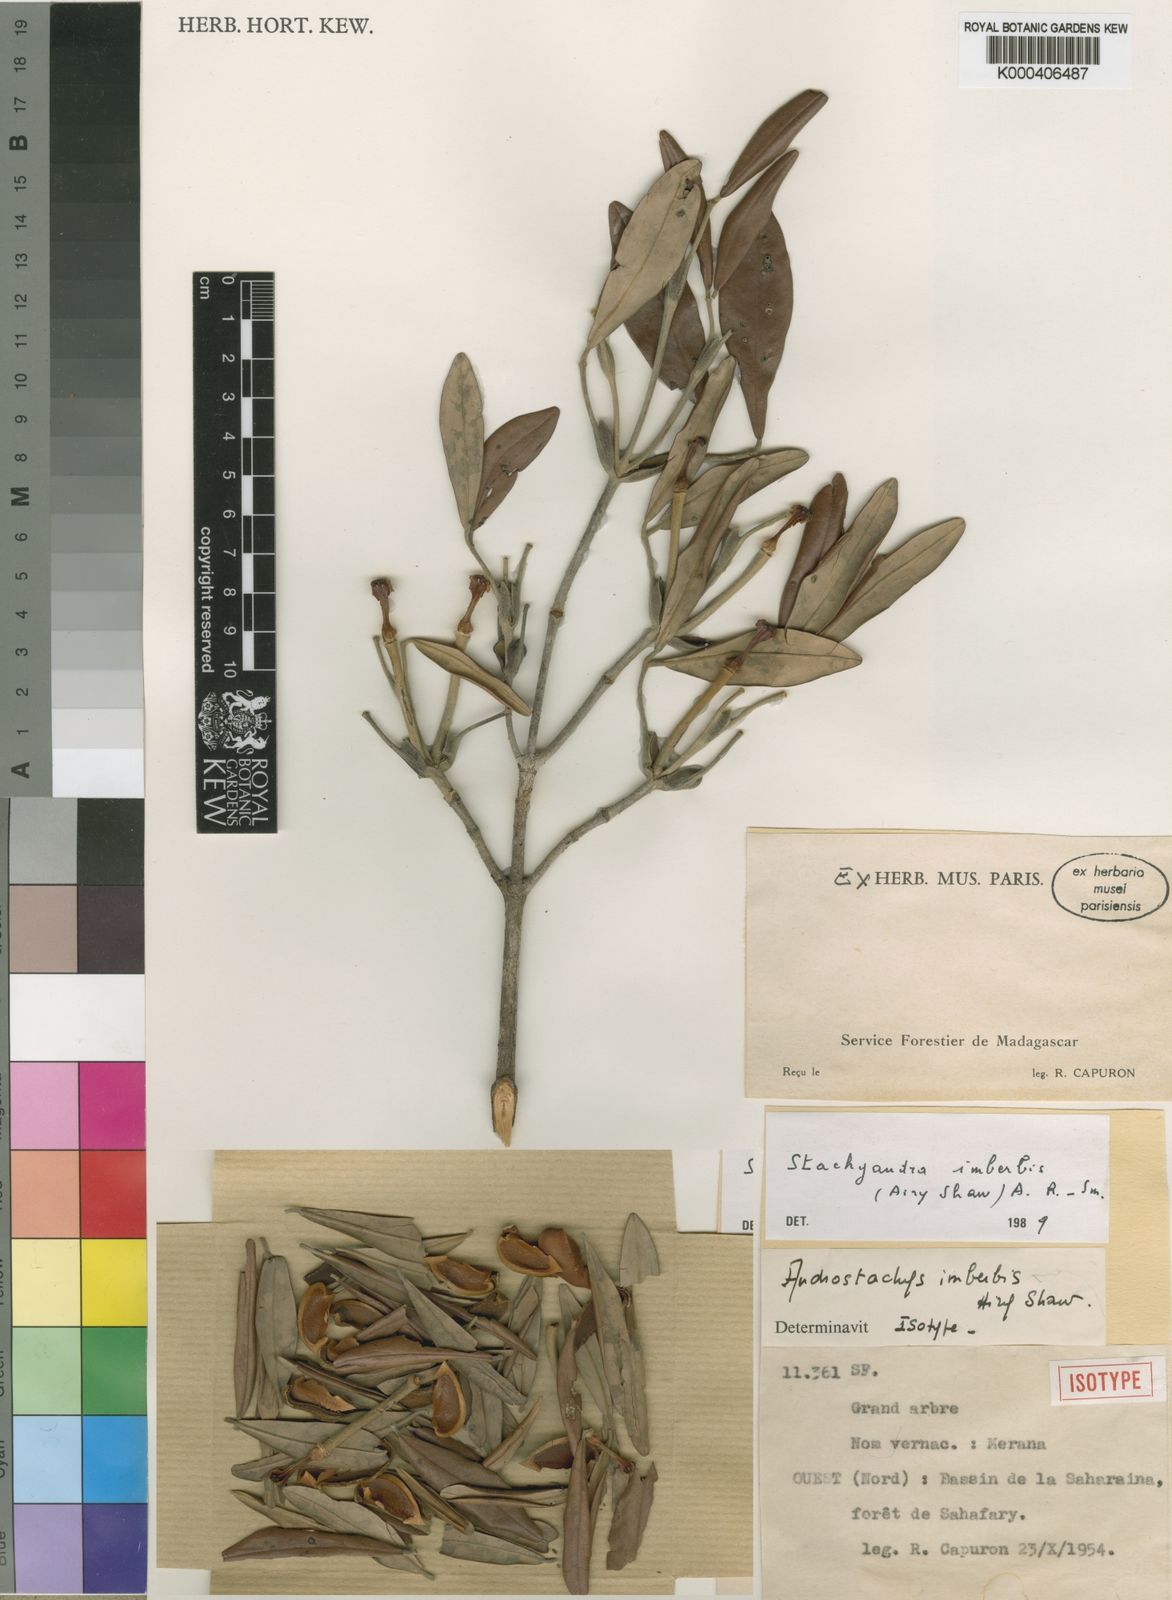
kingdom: Plantae
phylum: Tracheophyta
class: Magnoliopsida
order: Malpighiales
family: Picrodendraceae
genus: Stachyandra
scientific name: Stachyandra imberbis
